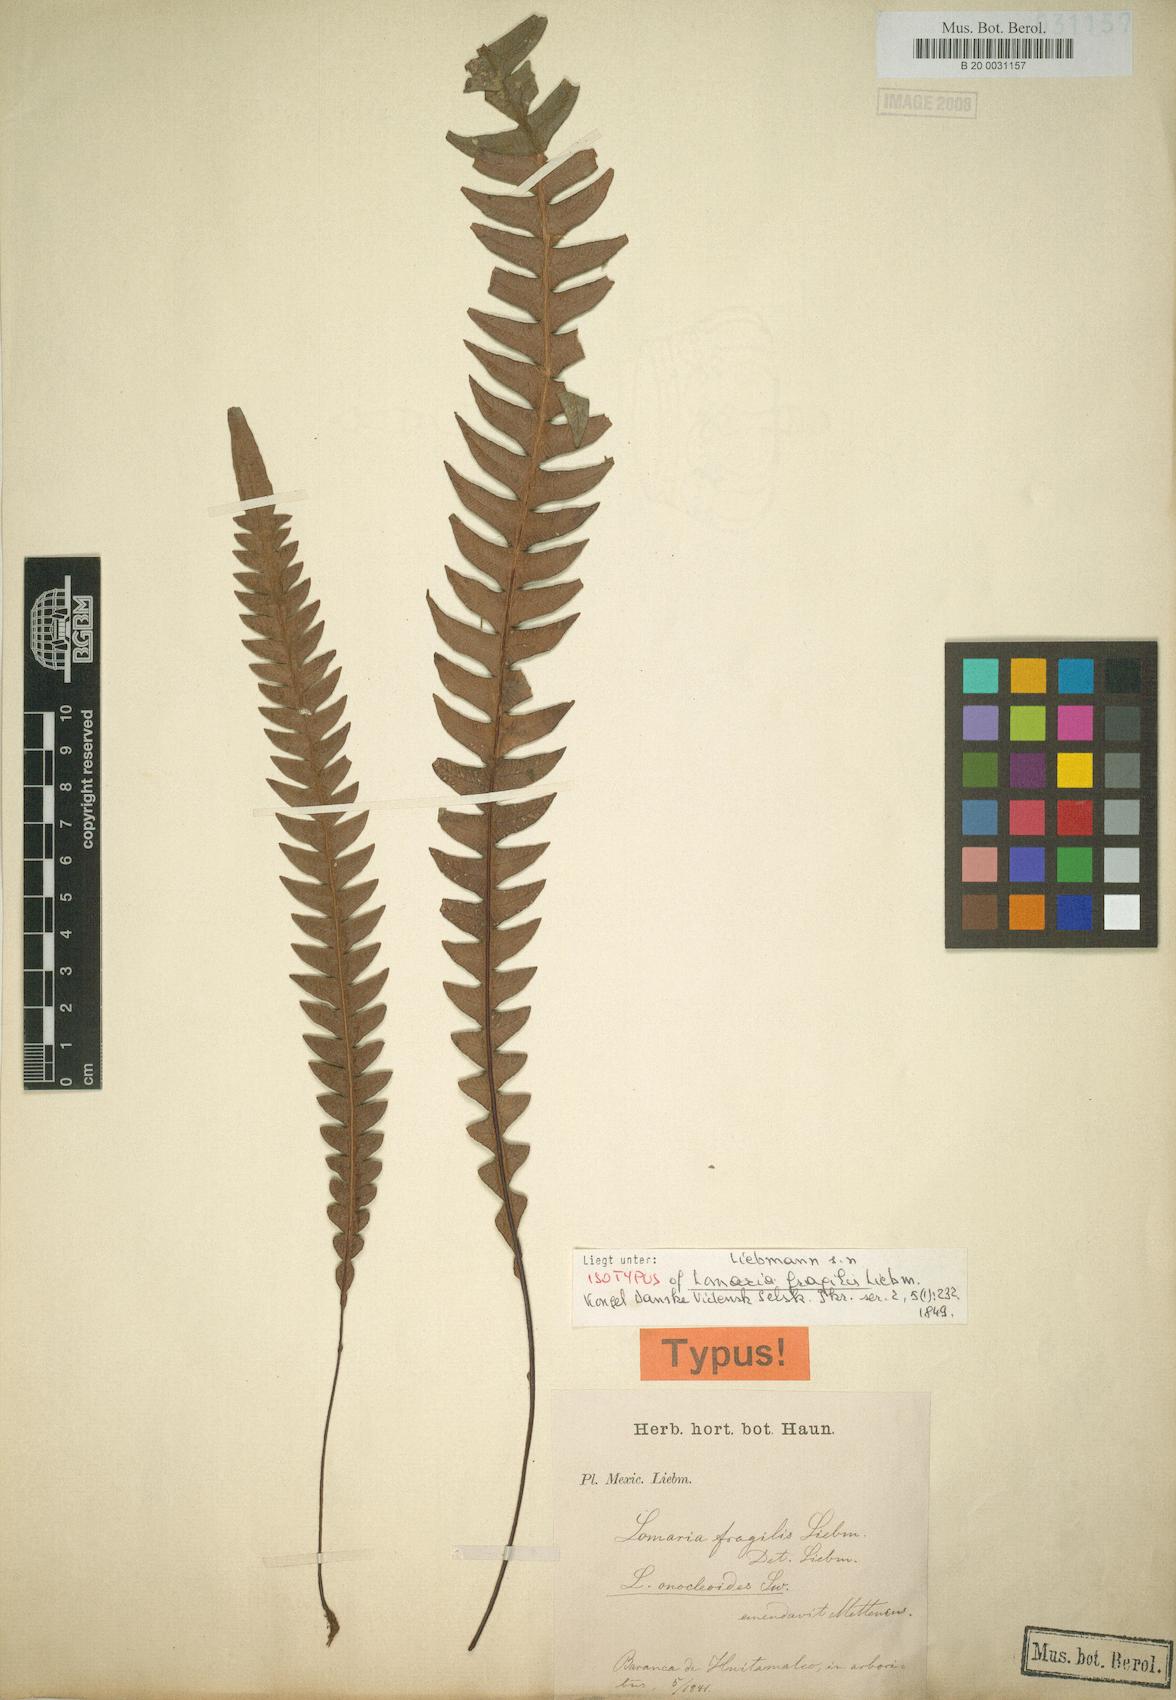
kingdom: Plantae
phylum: Tracheophyta
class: Polypodiopsida
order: Polypodiales
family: Blechnaceae
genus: Lomaridium
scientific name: Lomaridium fragile
